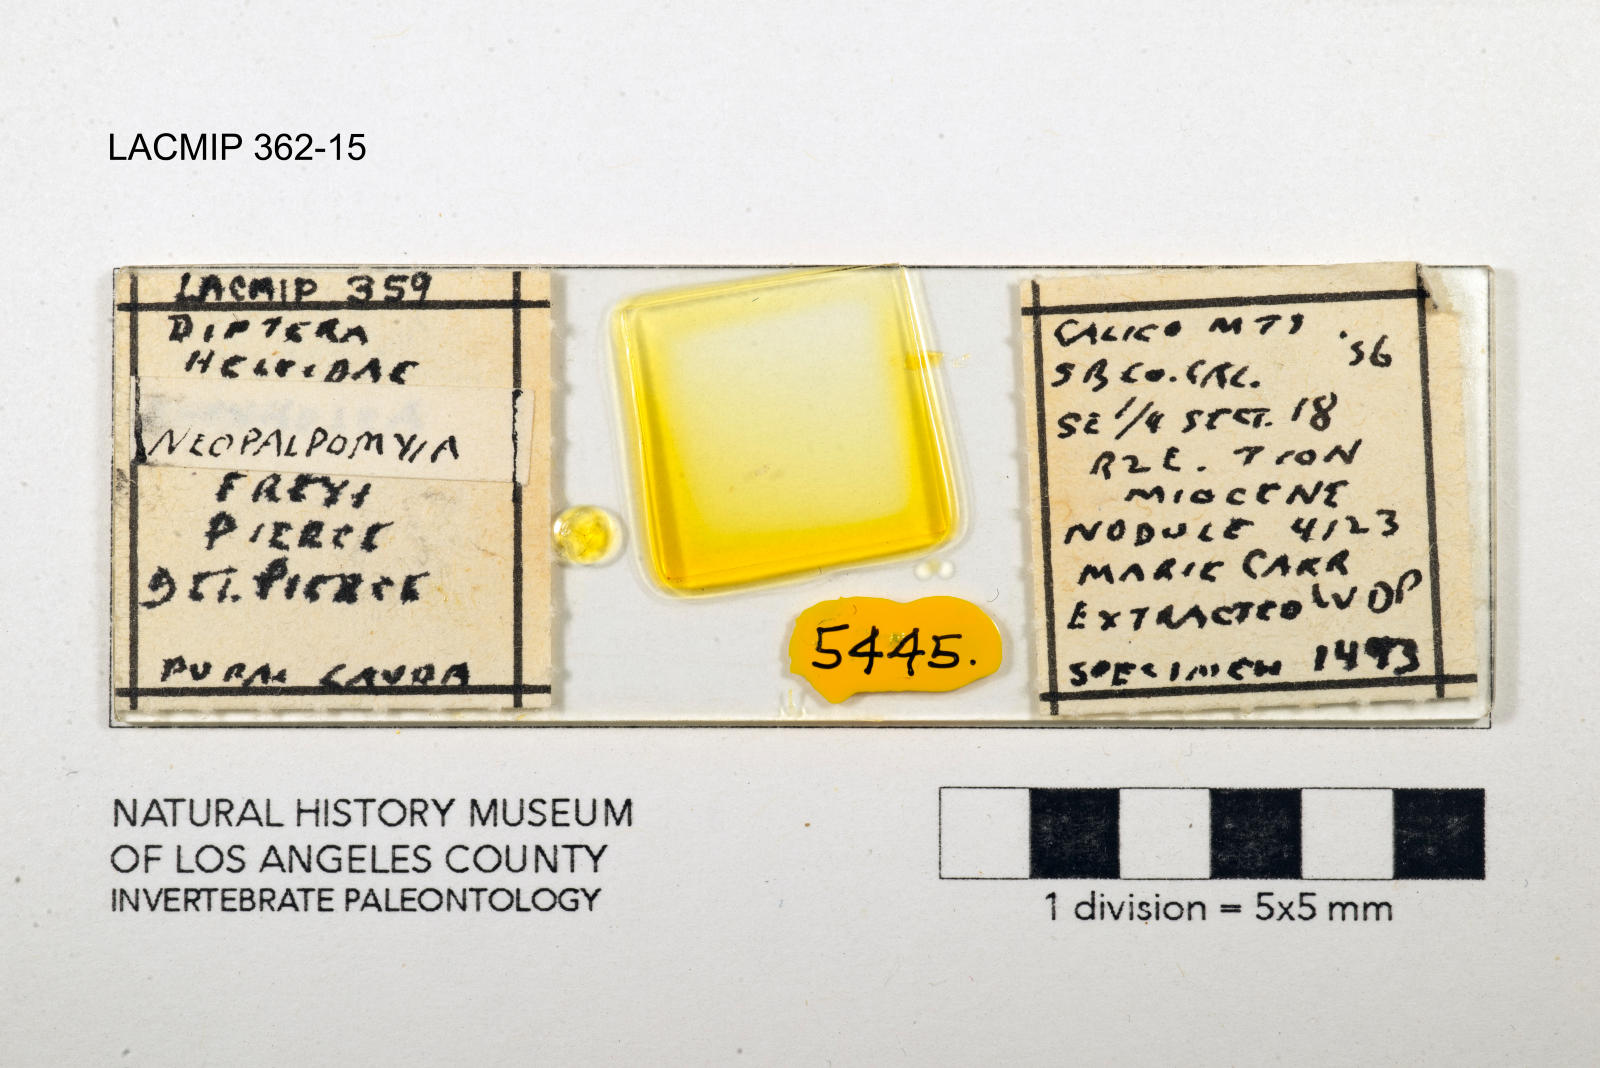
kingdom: Animalia
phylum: Arthropoda
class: Insecta
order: Diptera
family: Ceratopogonidae
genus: Palpomyia
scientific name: Palpomyia freyi
